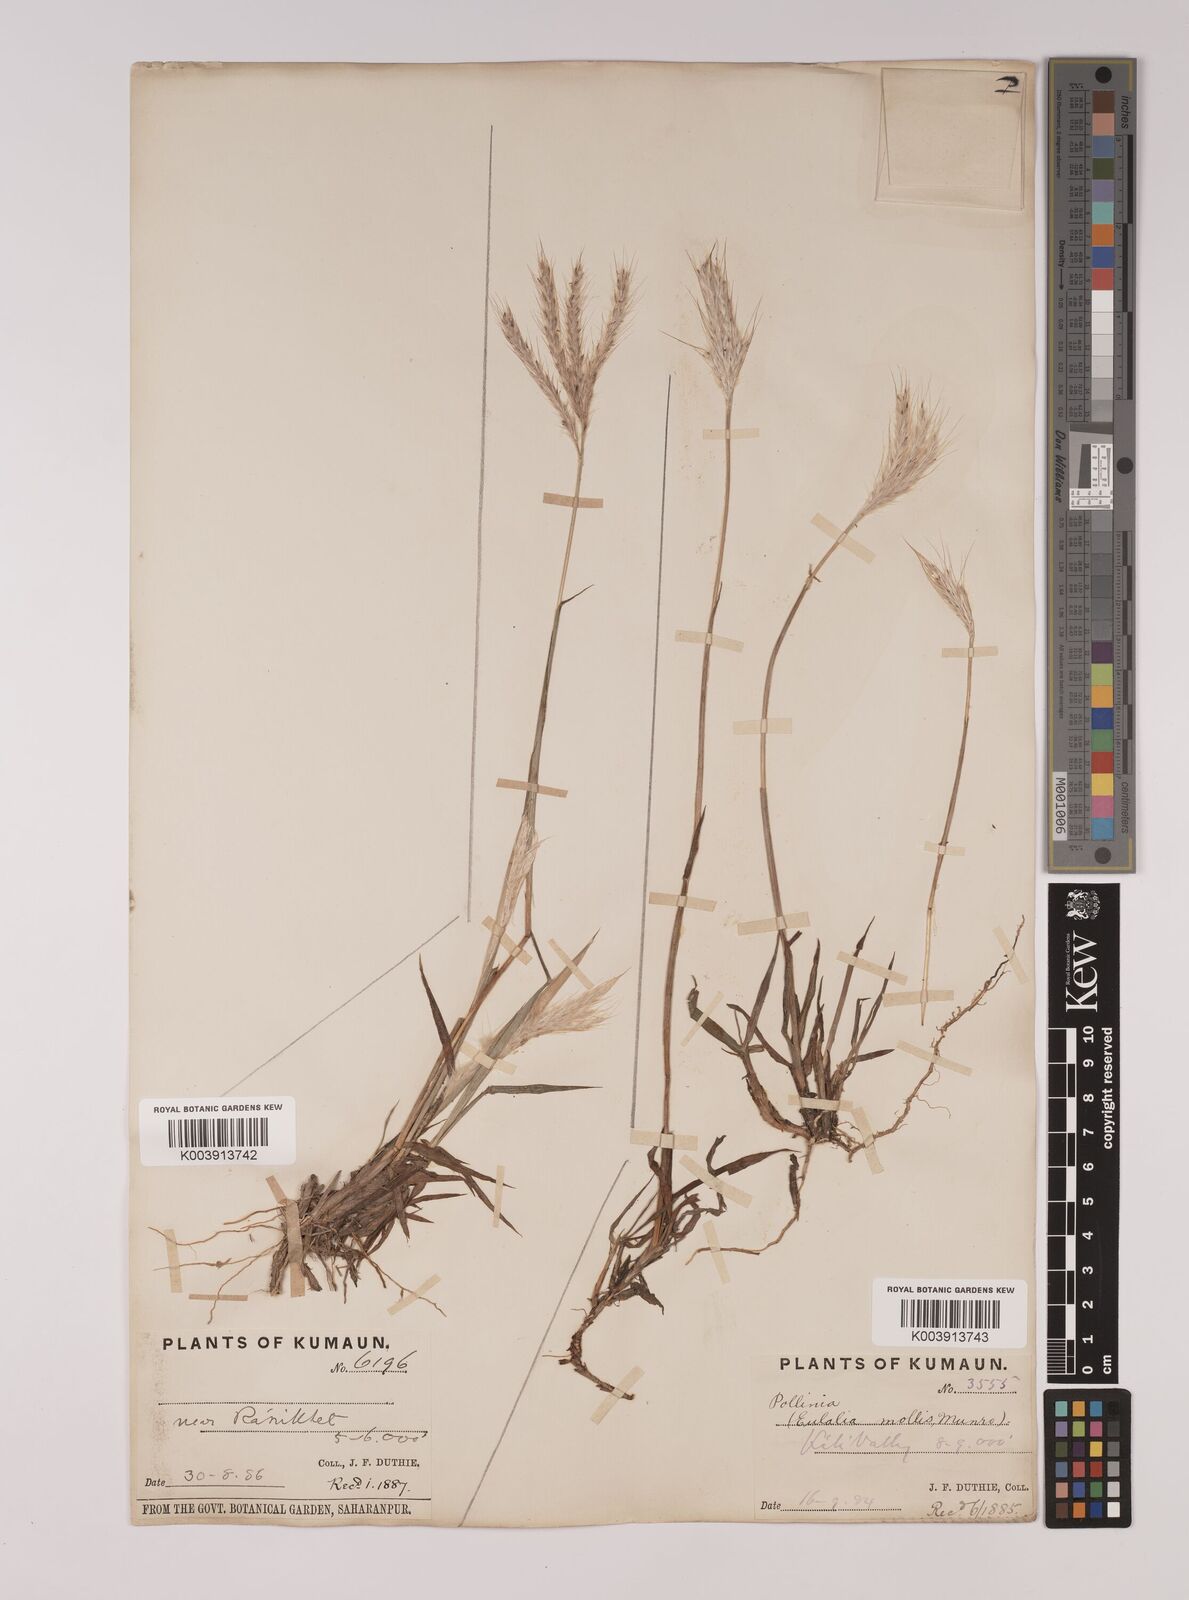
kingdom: Plantae
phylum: Tracheophyta
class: Liliopsida
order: Poales
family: Poaceae
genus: Eulalia
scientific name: Eulalia mollis
